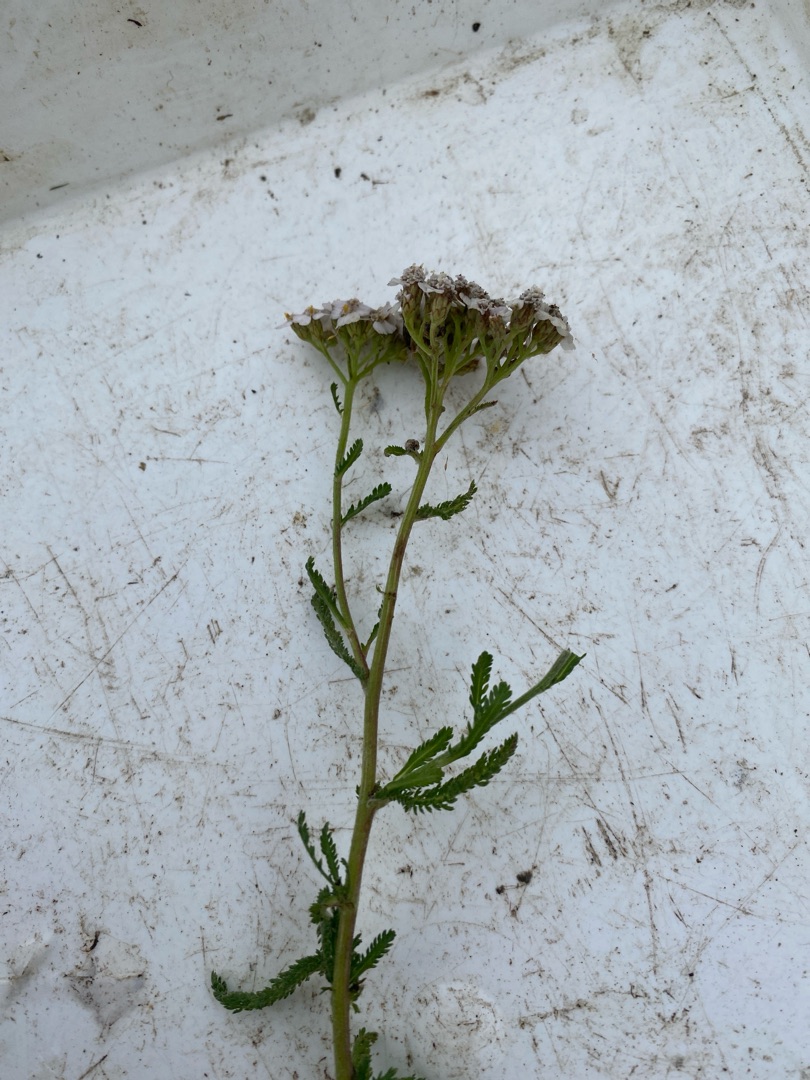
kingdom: Plantae
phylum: Tracheophyta
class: Magnoliopsida
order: Asterales
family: Asteraceae
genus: Achillea
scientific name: Achillea millefolium
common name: Almindelig røllike
